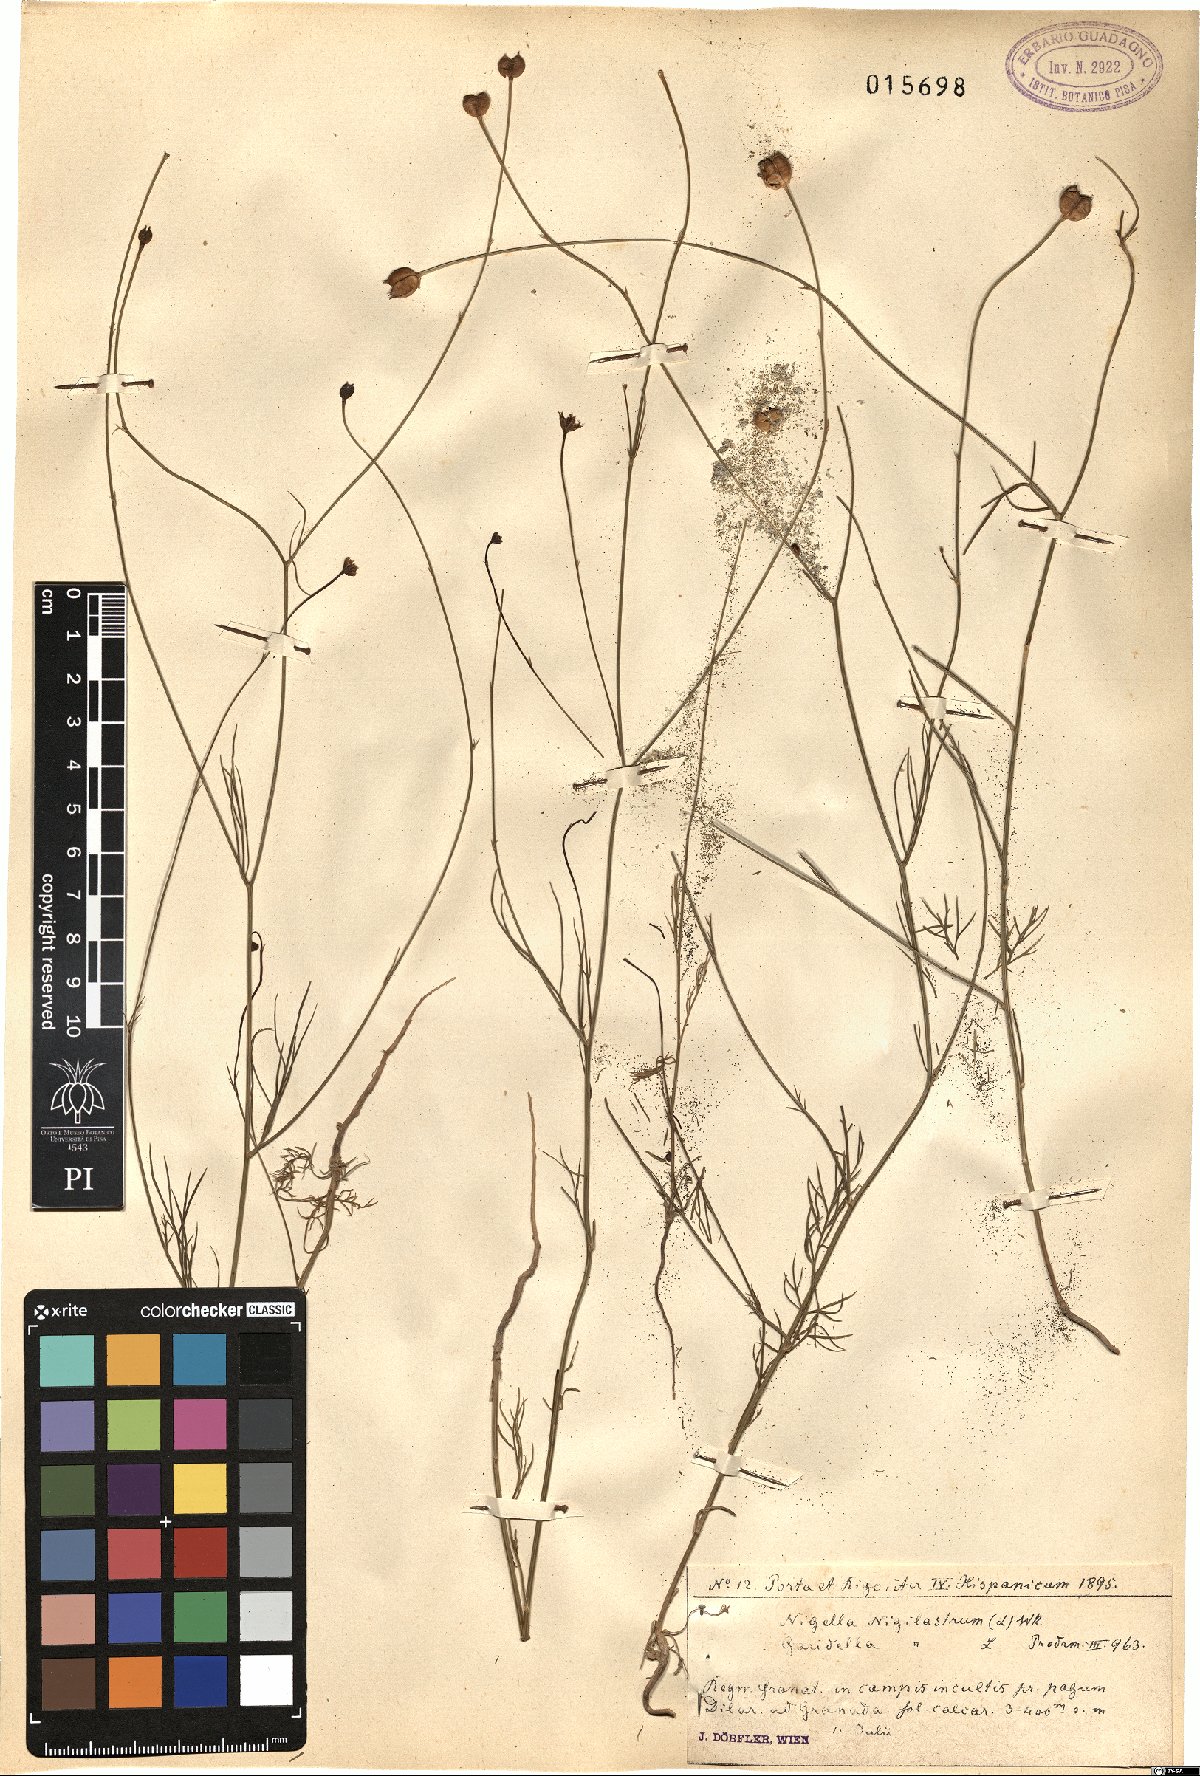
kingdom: Plantae
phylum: Tracheophyta
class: Magnoliopsida
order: Ranunculales
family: Ranunculaceae
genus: Garidella
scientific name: Garidella nigellastrum
